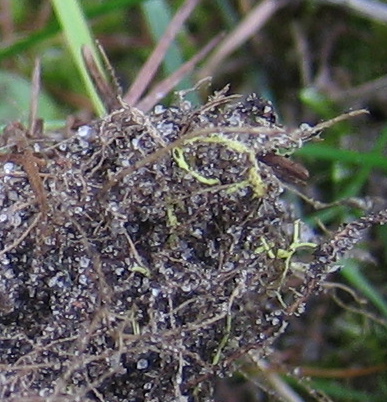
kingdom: Fungi
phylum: Basidiomycota
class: Agaricomycetes
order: Boletales
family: Boletaceae
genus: Xerocomus
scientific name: Xerocomus ferrugineus
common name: vaskeskinds-rørhat
